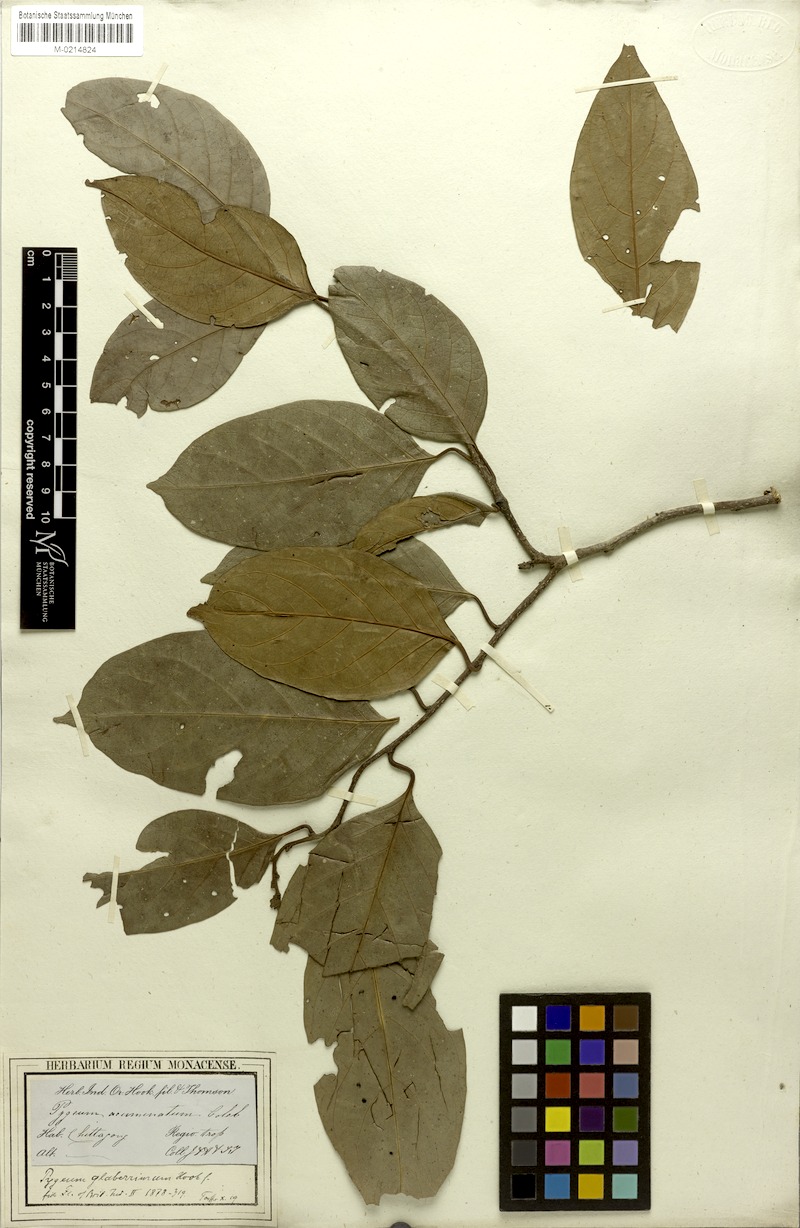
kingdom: Plantae
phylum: Tracheophyta
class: Magnoliopsida
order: Rosales
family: Rosaceae
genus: Prunus
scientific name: Prunus ceylanica
